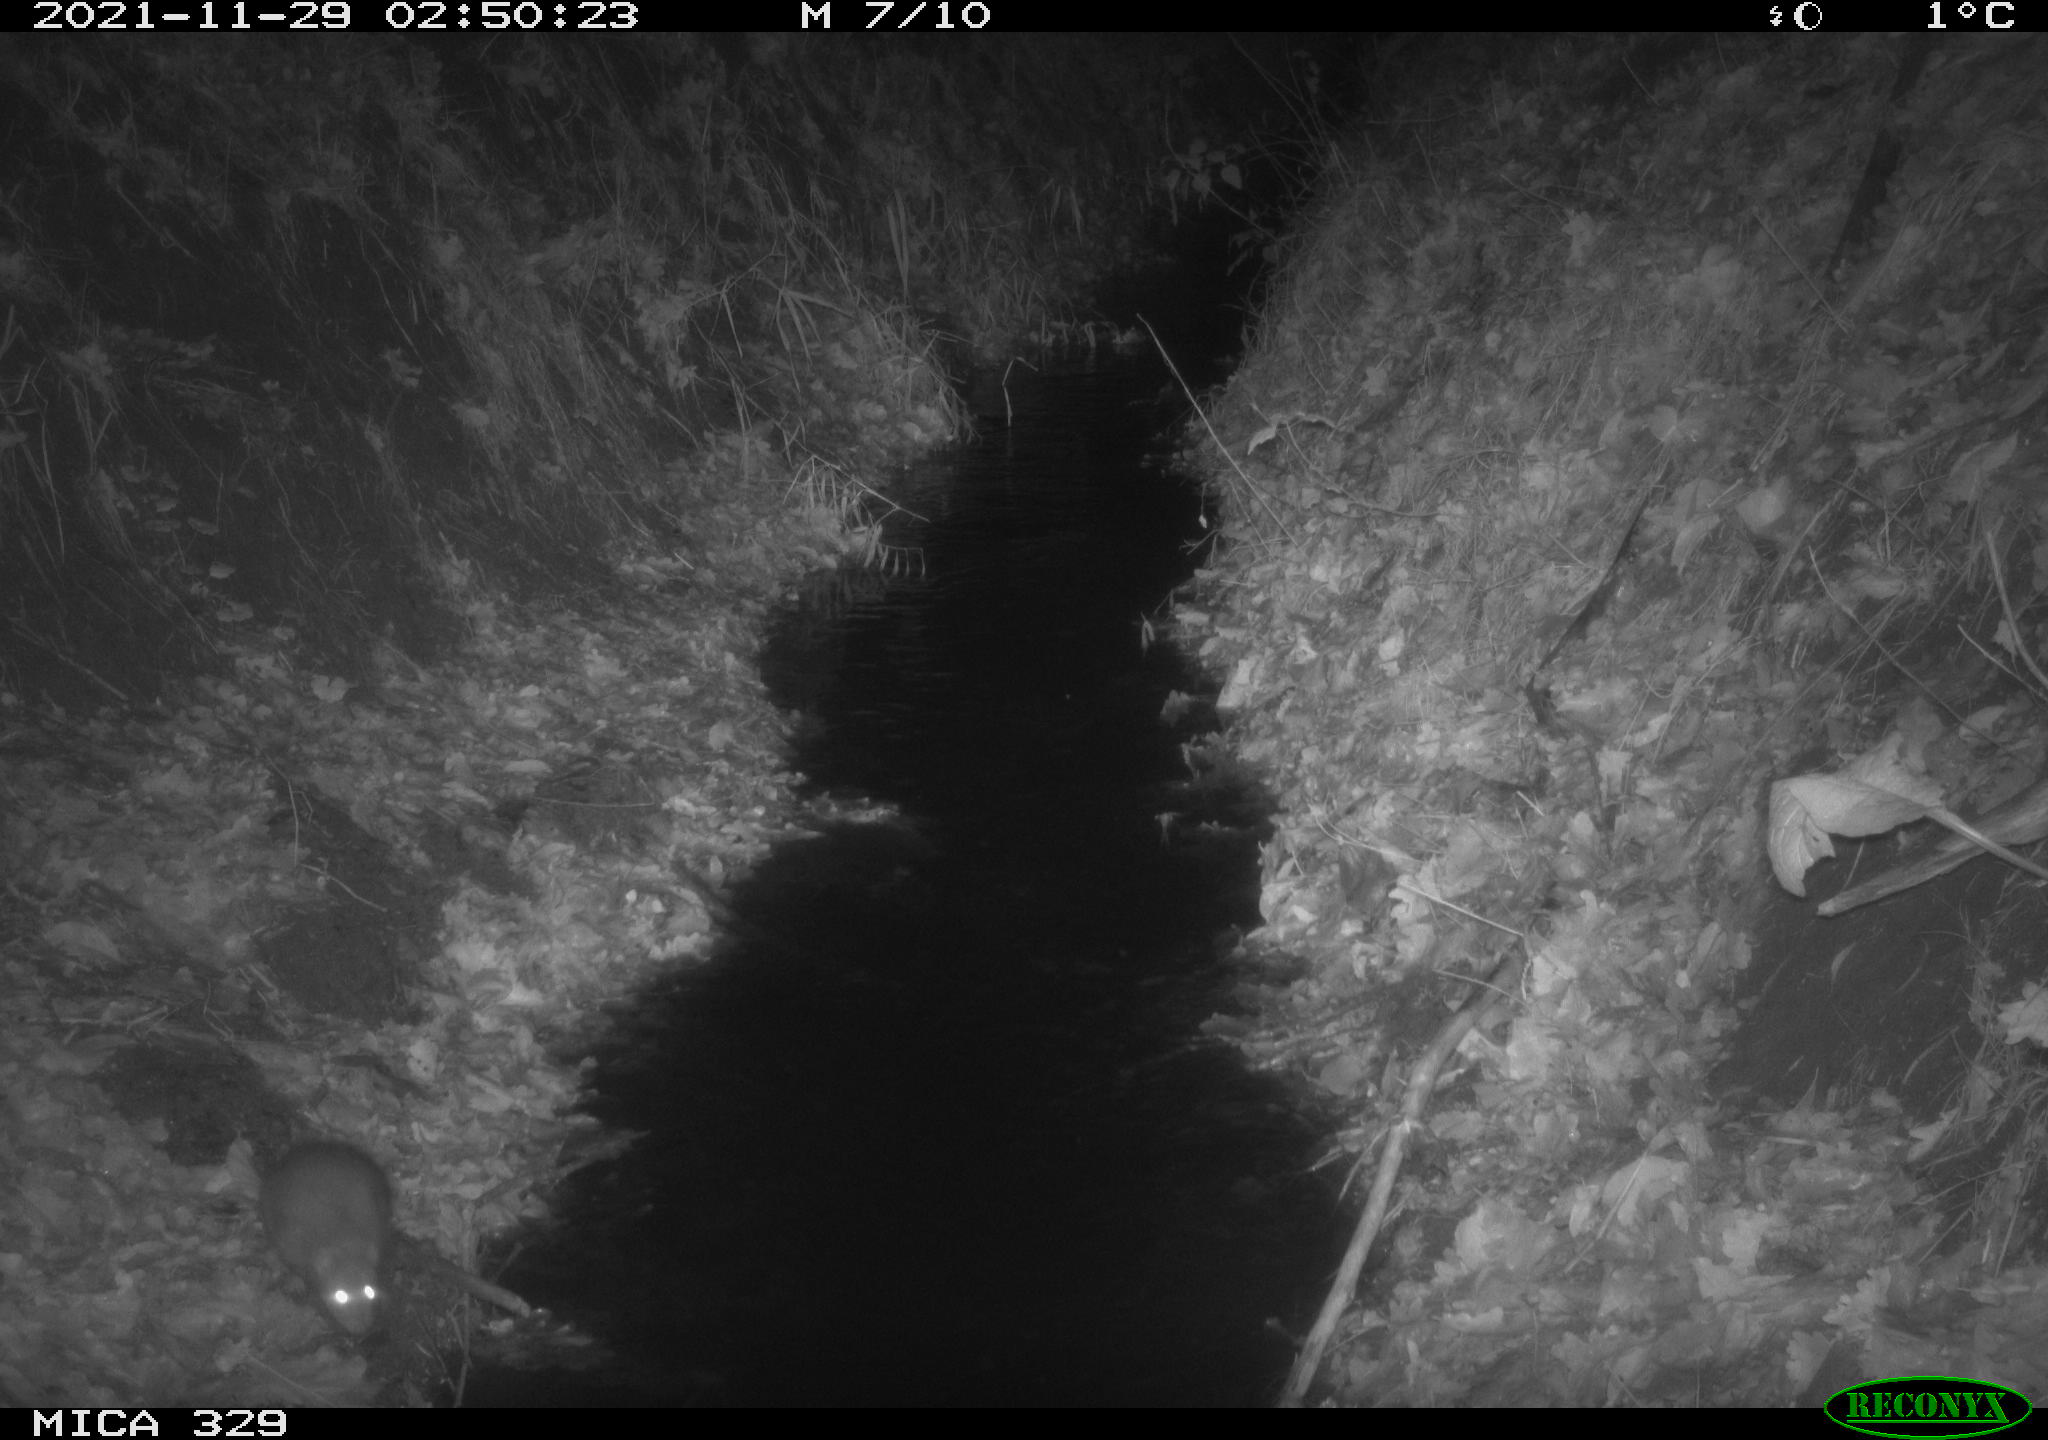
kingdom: Animalia
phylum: Chordata
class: Mammalia
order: Rodentia
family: Muridae
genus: Rattus
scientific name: Rattus norvegicus
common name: Brown rat
